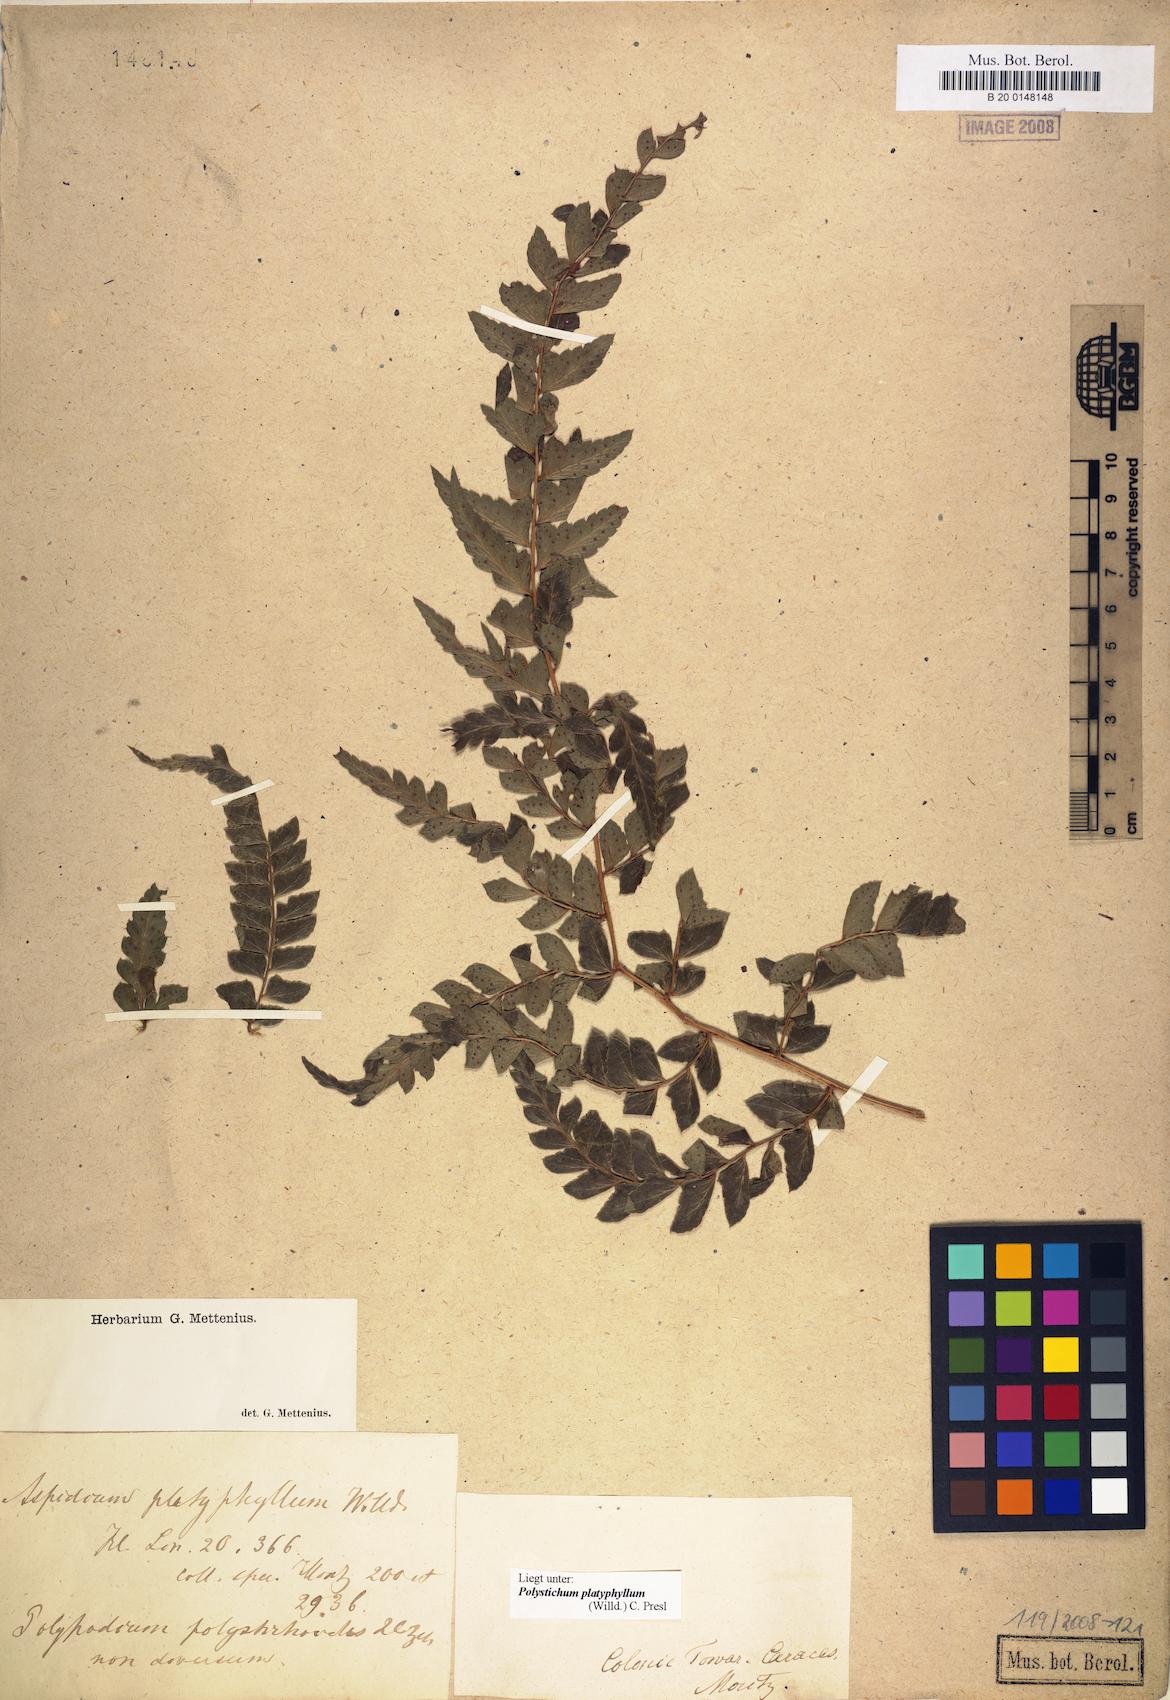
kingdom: Plantae
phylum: Tracheophyta
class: Polypodiopsida
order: Polypodiales
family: Dryopteridaceae
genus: Polystichum
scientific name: Polystichum platyphyllum
